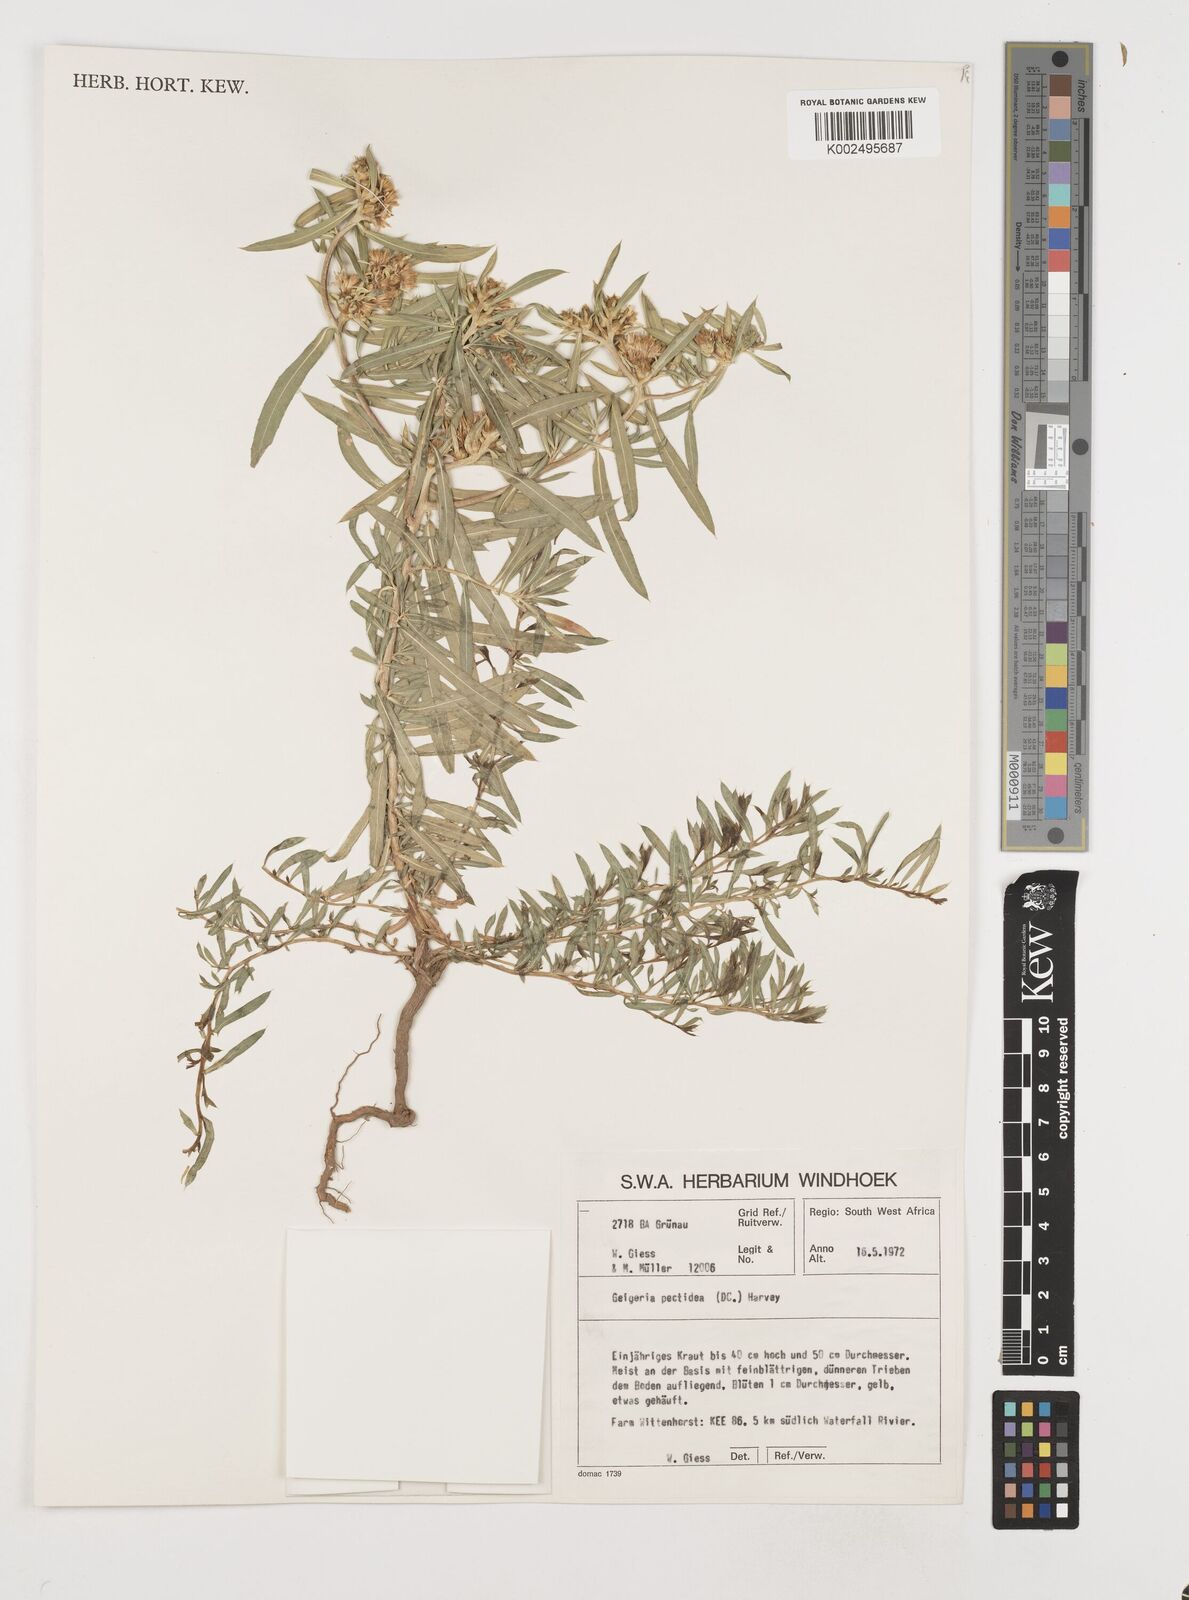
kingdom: Plantae
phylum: Tracheophyta
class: Magnoliopsida
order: Asterales
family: Asteraceae
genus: Geigeria
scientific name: Geigeria pectidea
